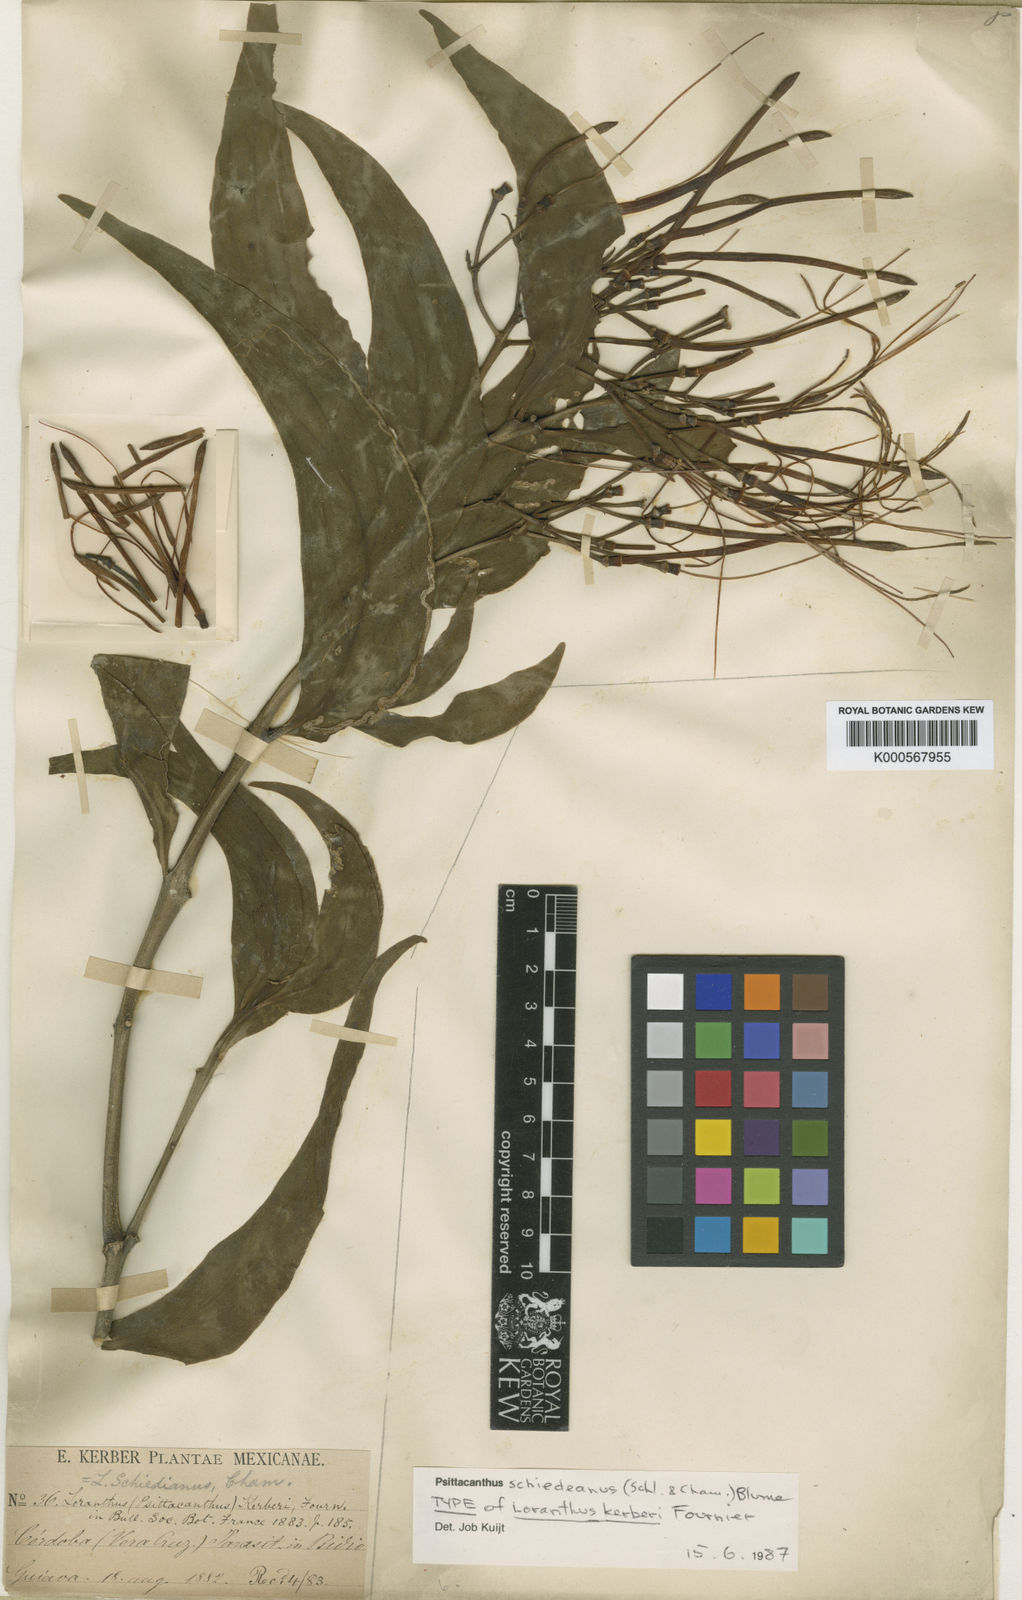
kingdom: Plantae
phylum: Tracheophyta
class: Magnoliopsida
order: Santalales
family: Loranthaceae
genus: Psittacanthus
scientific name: Psittacanthus
